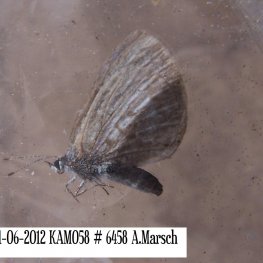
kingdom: Animalia
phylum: Arthropoda
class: Insecta
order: Lepidoptera
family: Lycaenidae
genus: Celastrina
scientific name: Celastrina lucia
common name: Northern Spring Azure
